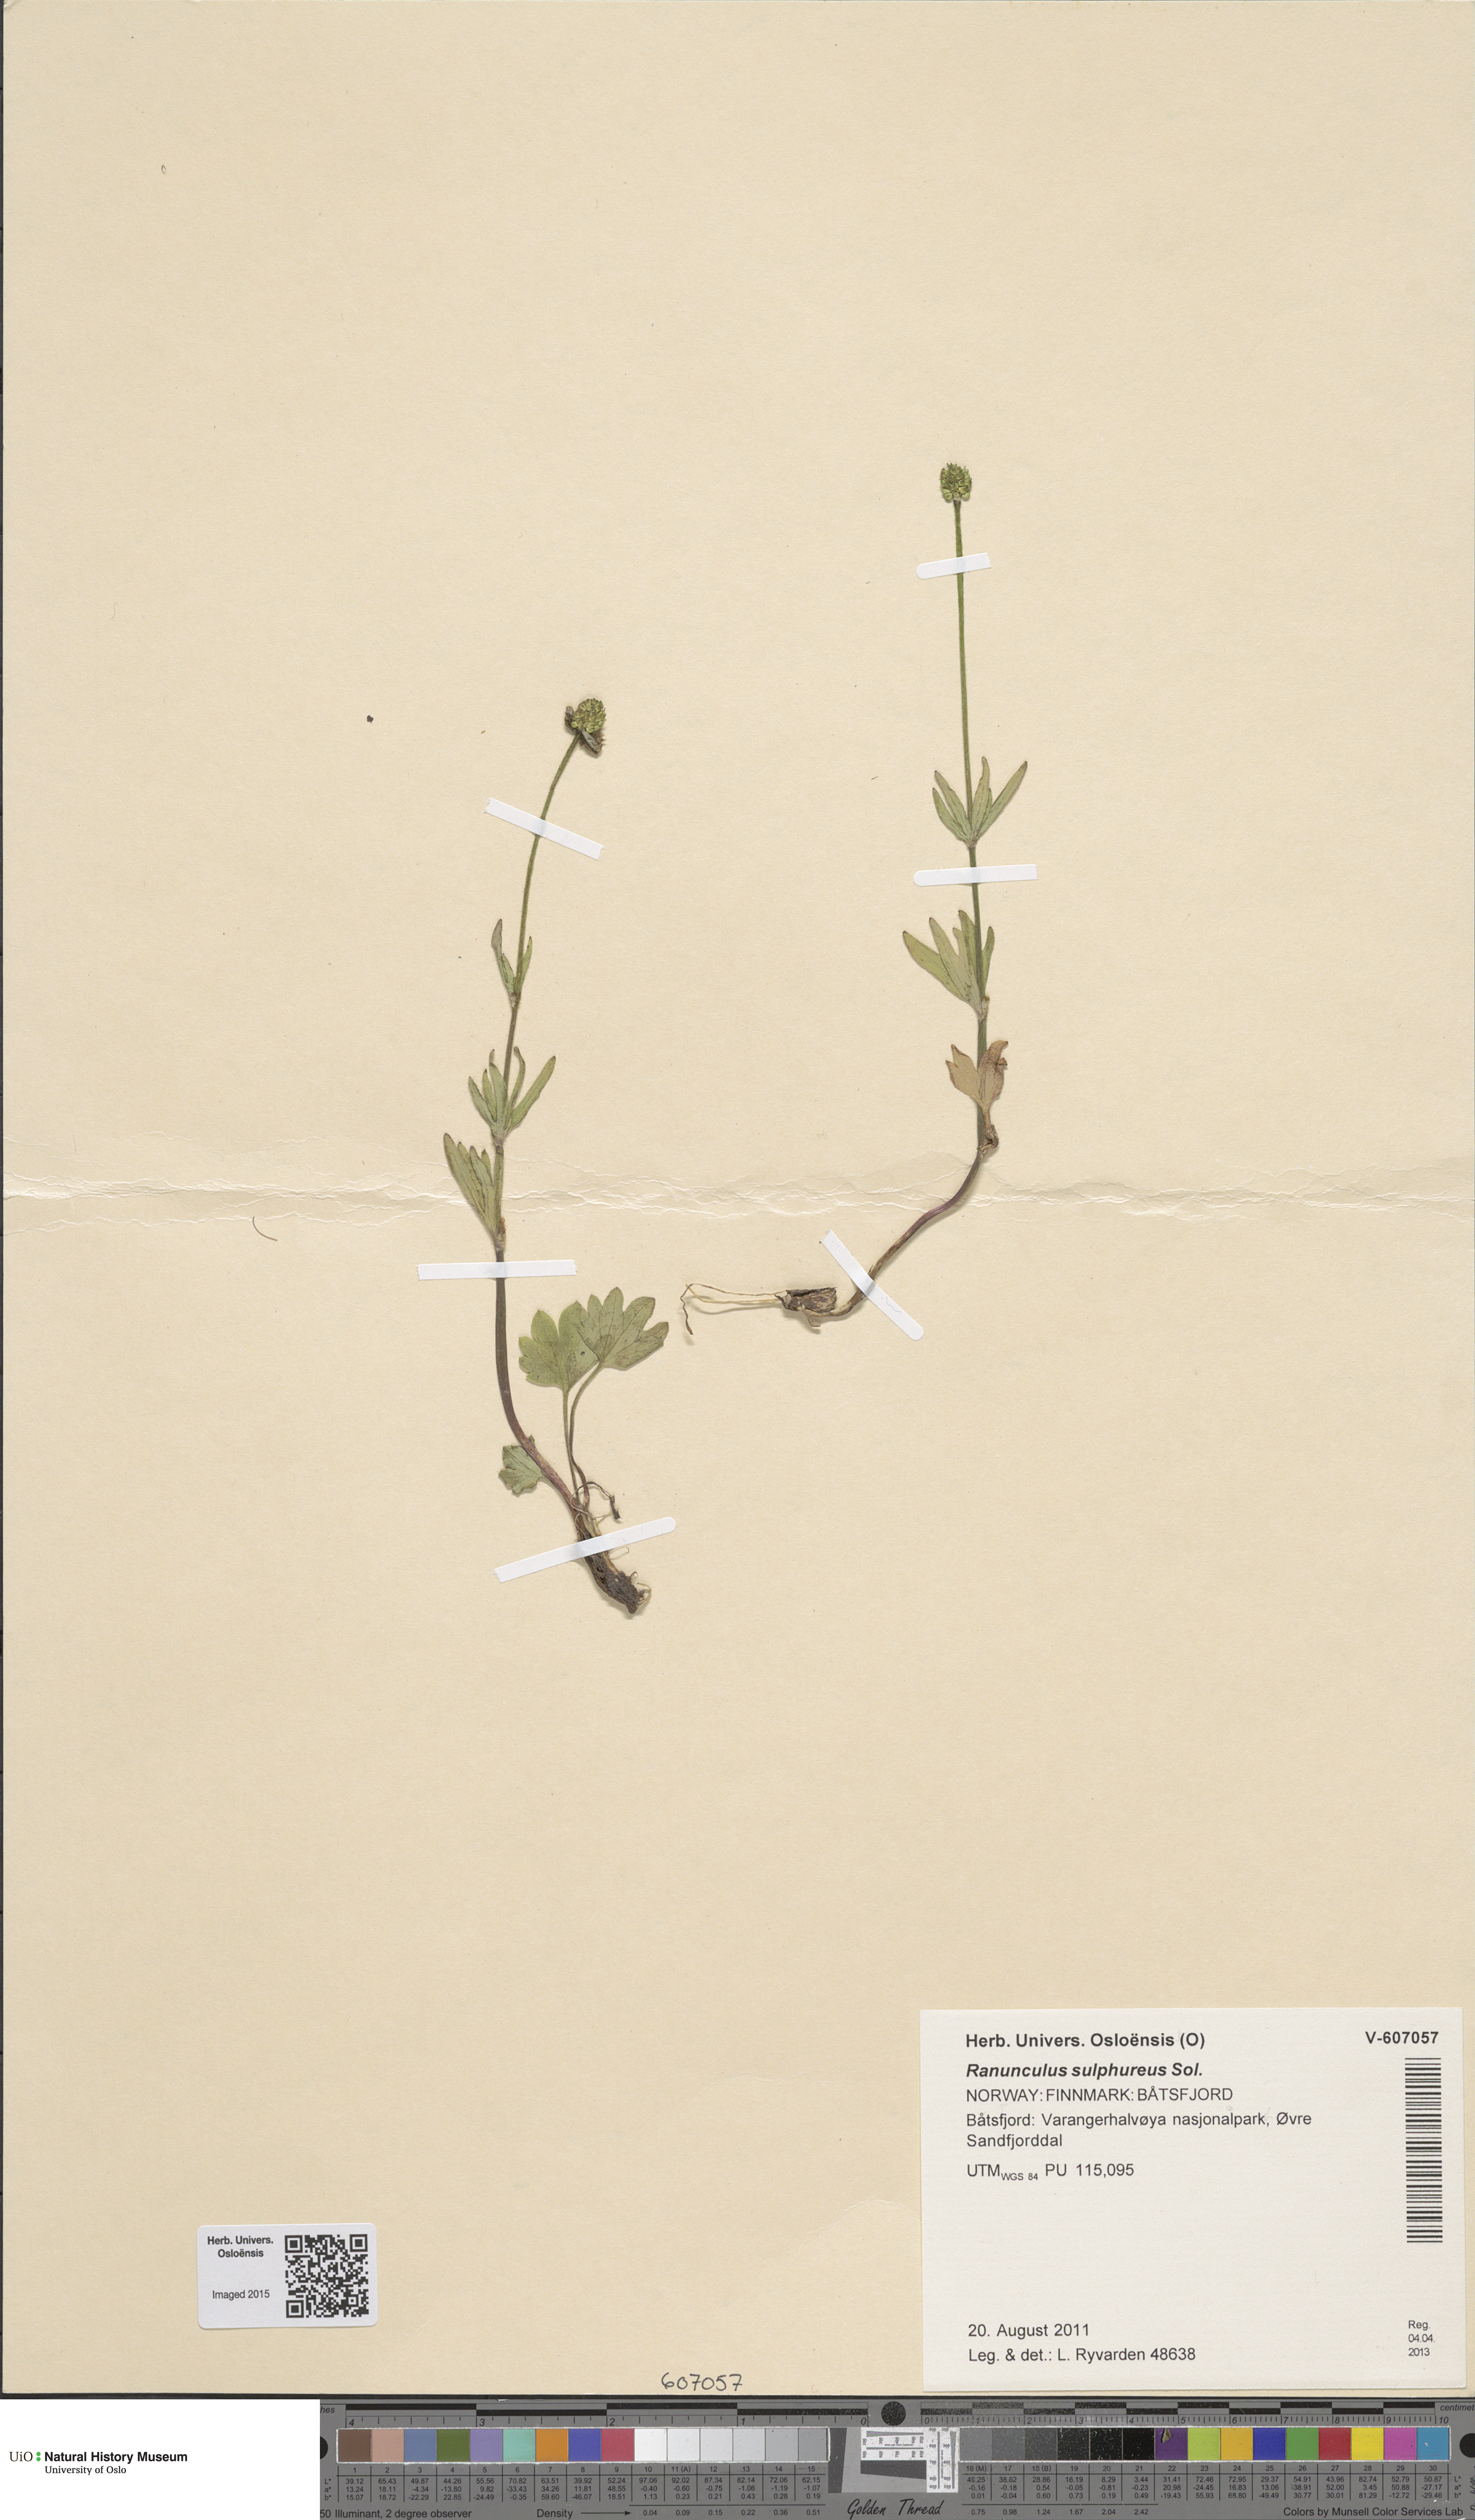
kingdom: Plantae
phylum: Tracheophyta
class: Magnoliopsida
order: Ranunculales
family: Ranunculaceae
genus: Ranunculus
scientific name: Ranunculus sulphureus
